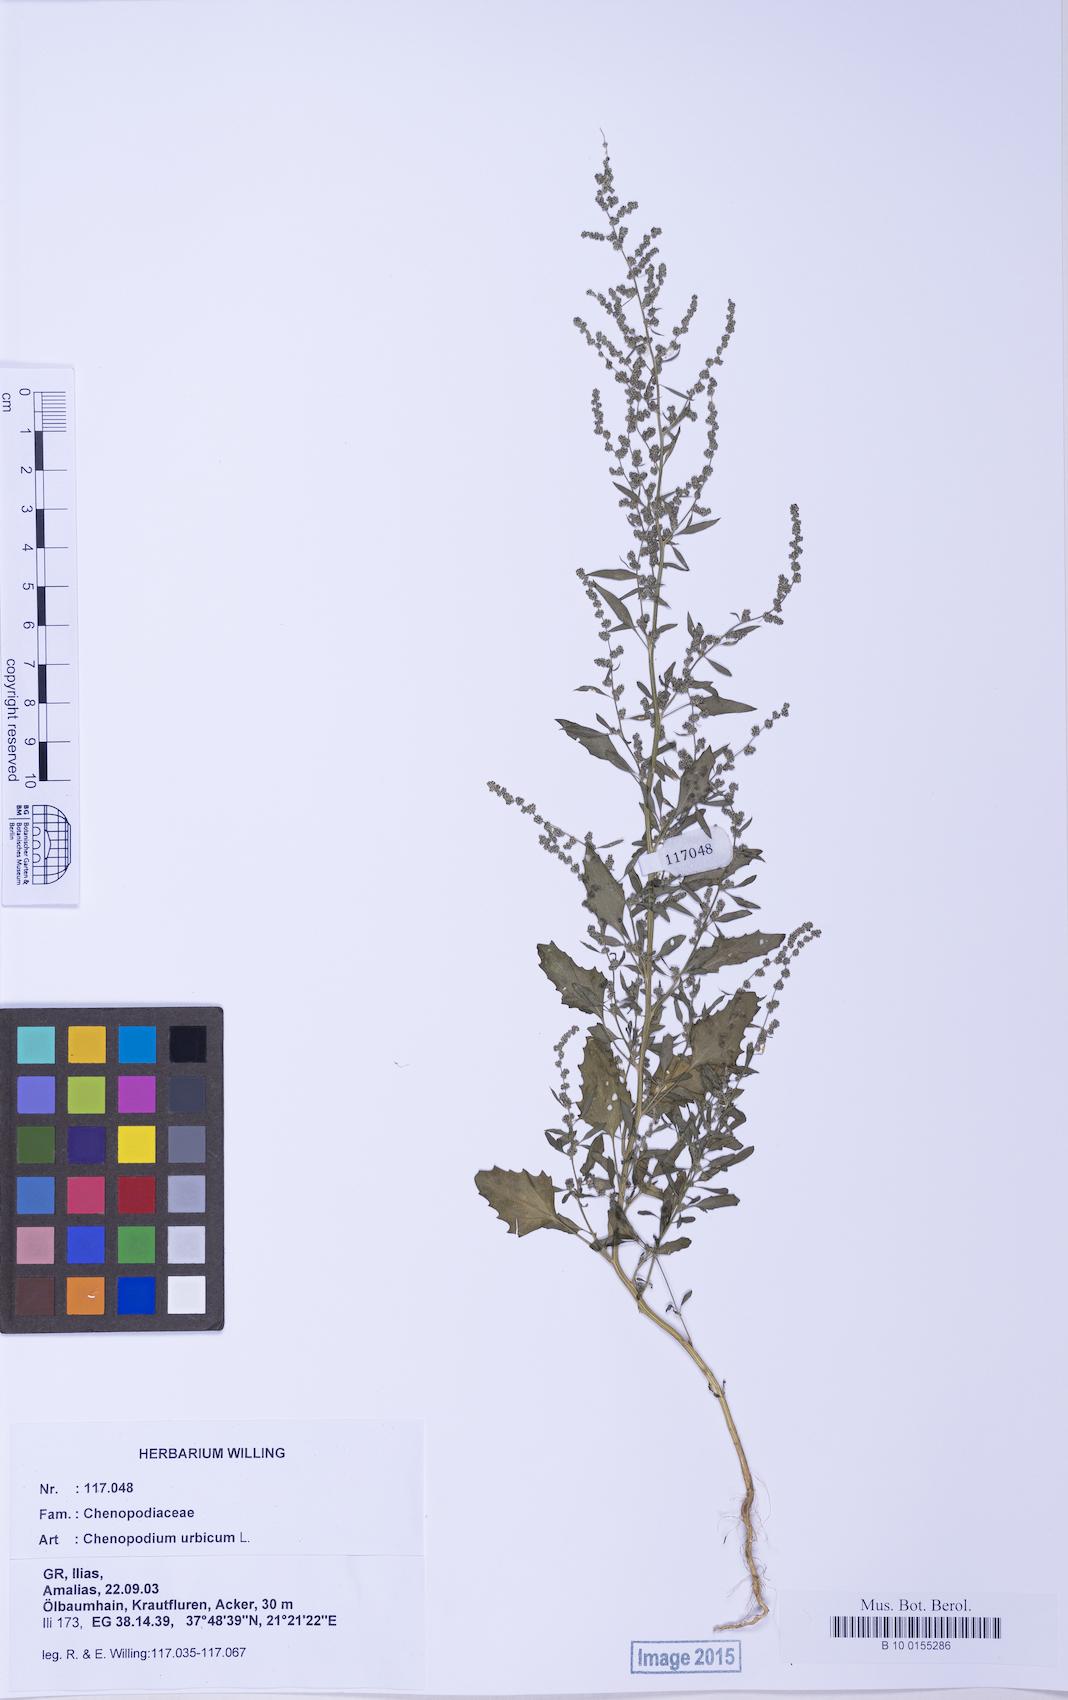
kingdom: Plantae
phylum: Tracheophyta
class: Magnoliopsida
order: Caryophyllales
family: Amaranthaceae
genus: Chenopodium
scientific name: Chenopodium album
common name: Fat-hen
